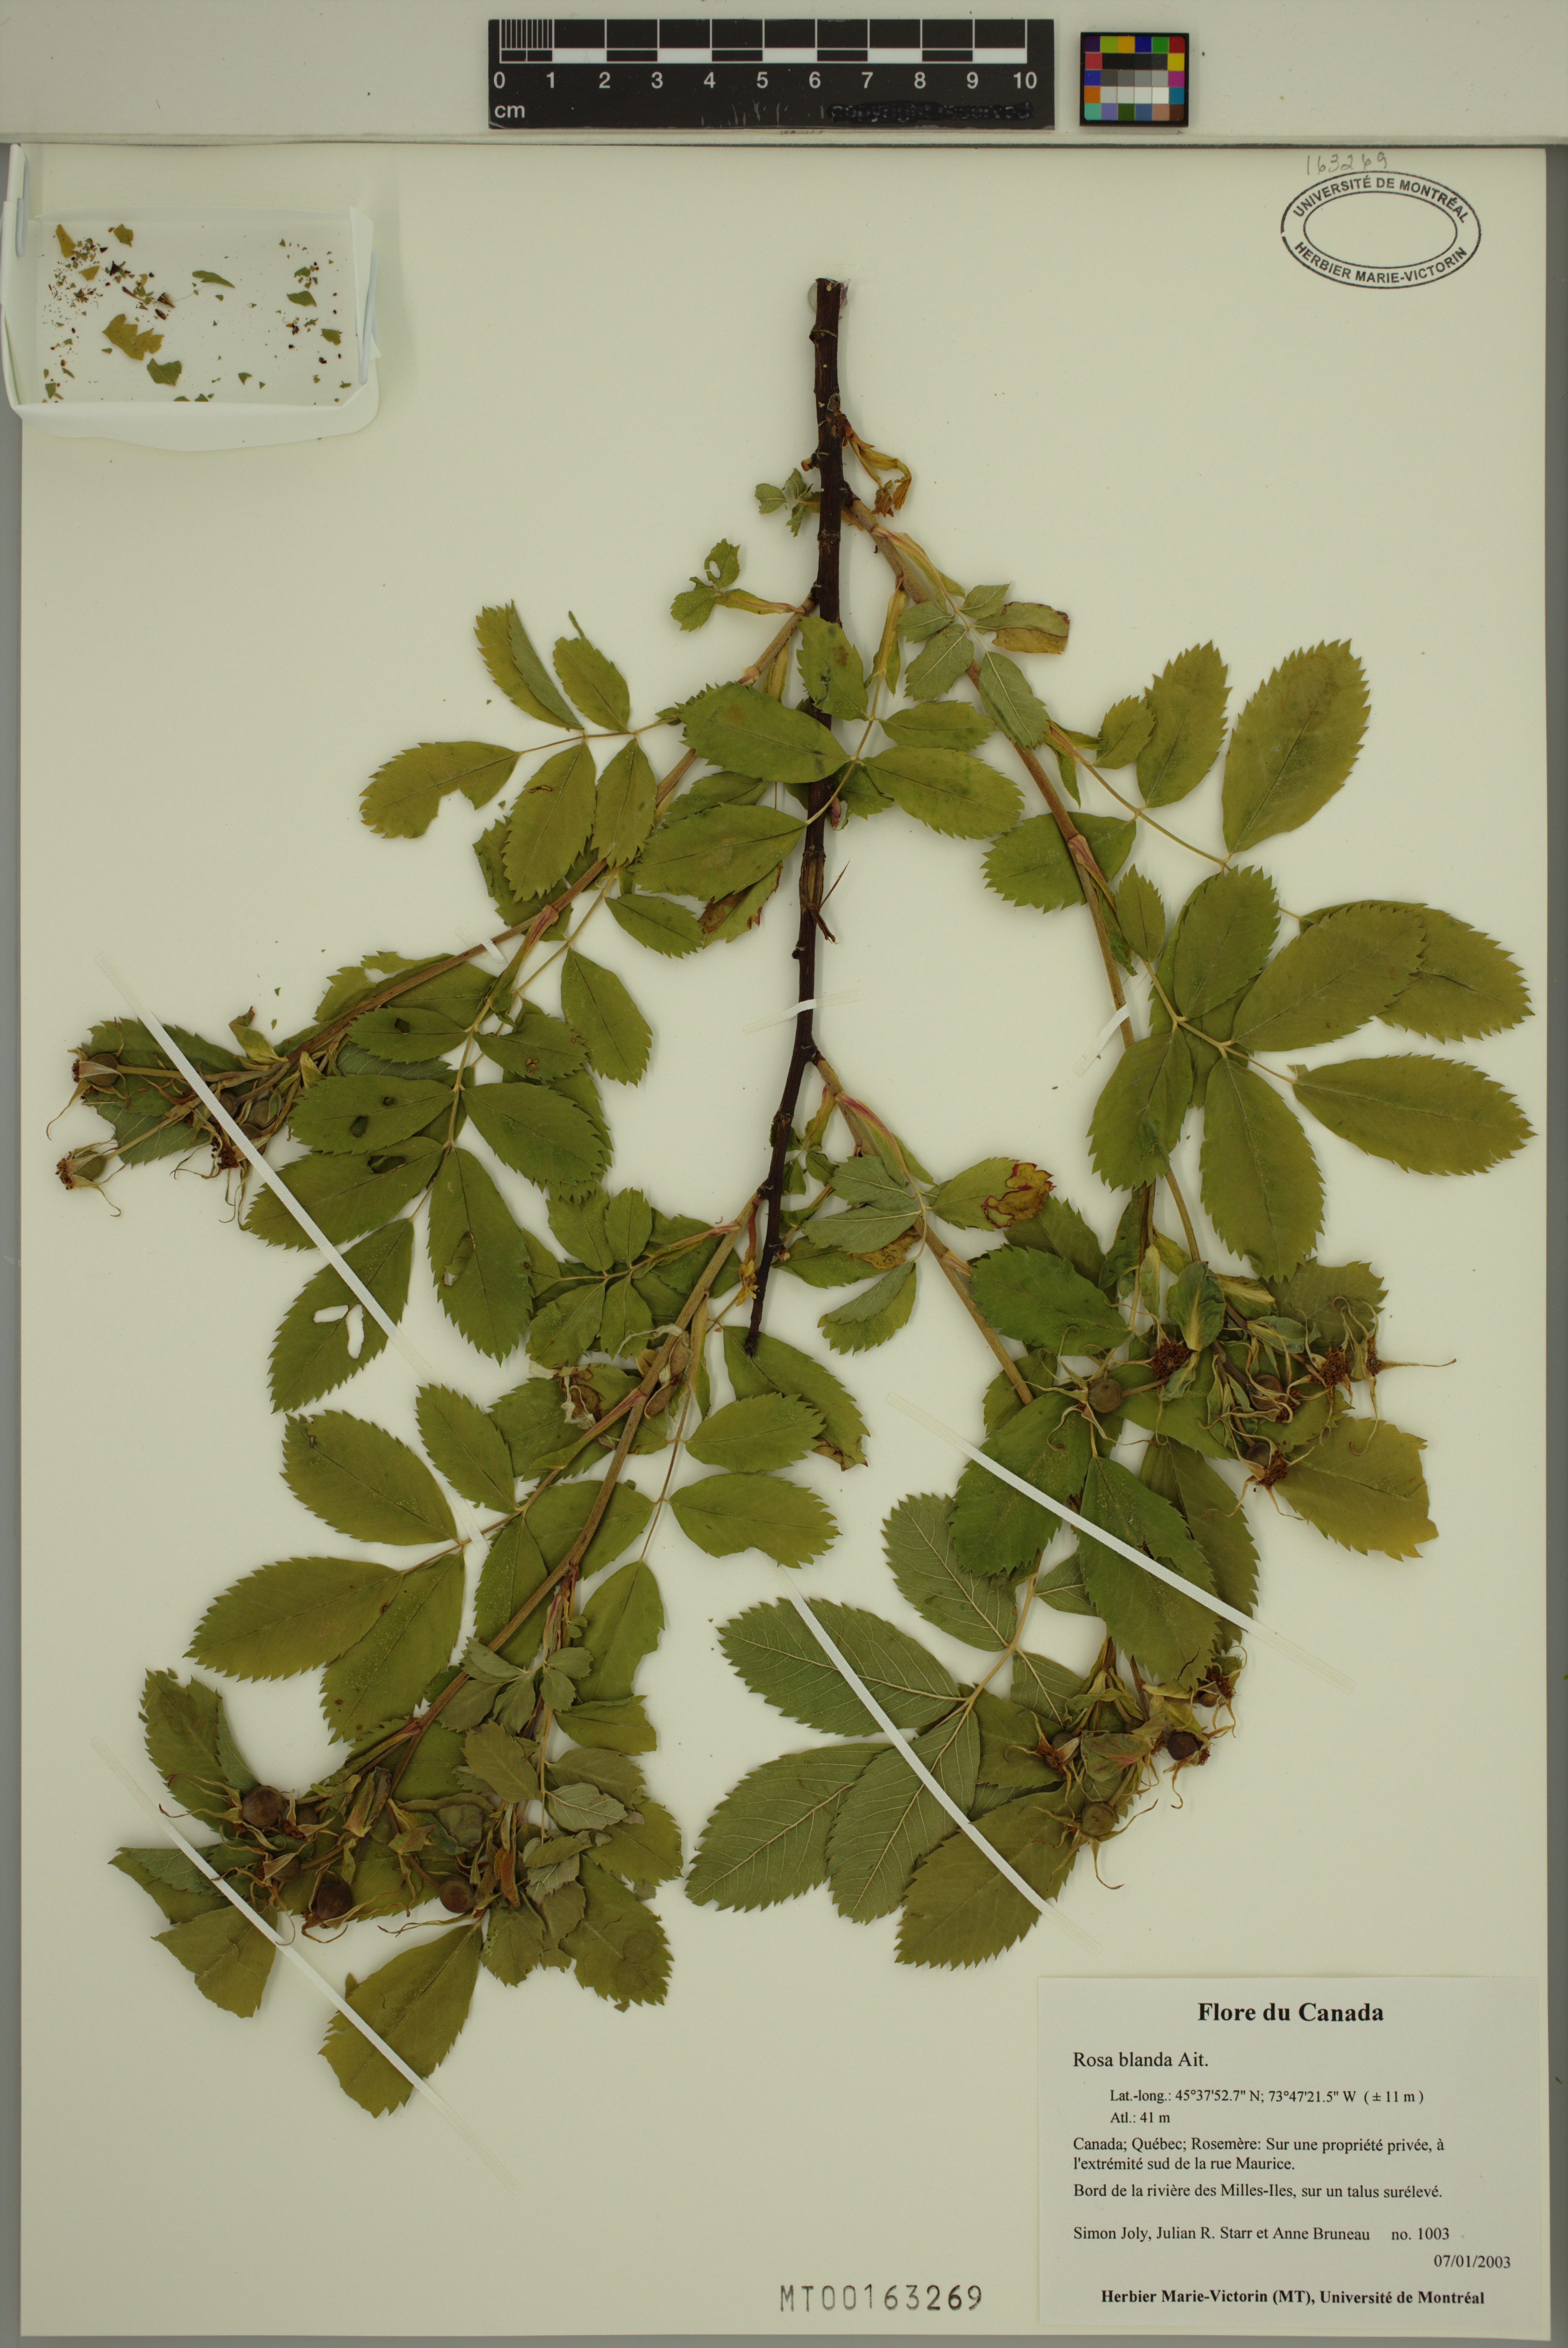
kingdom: Plantae
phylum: Tracheophyta
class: Magnoliopsida
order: Rosales
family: Rosaceae
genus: Rosa
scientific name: Rosa blanda
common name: Smooth rose
